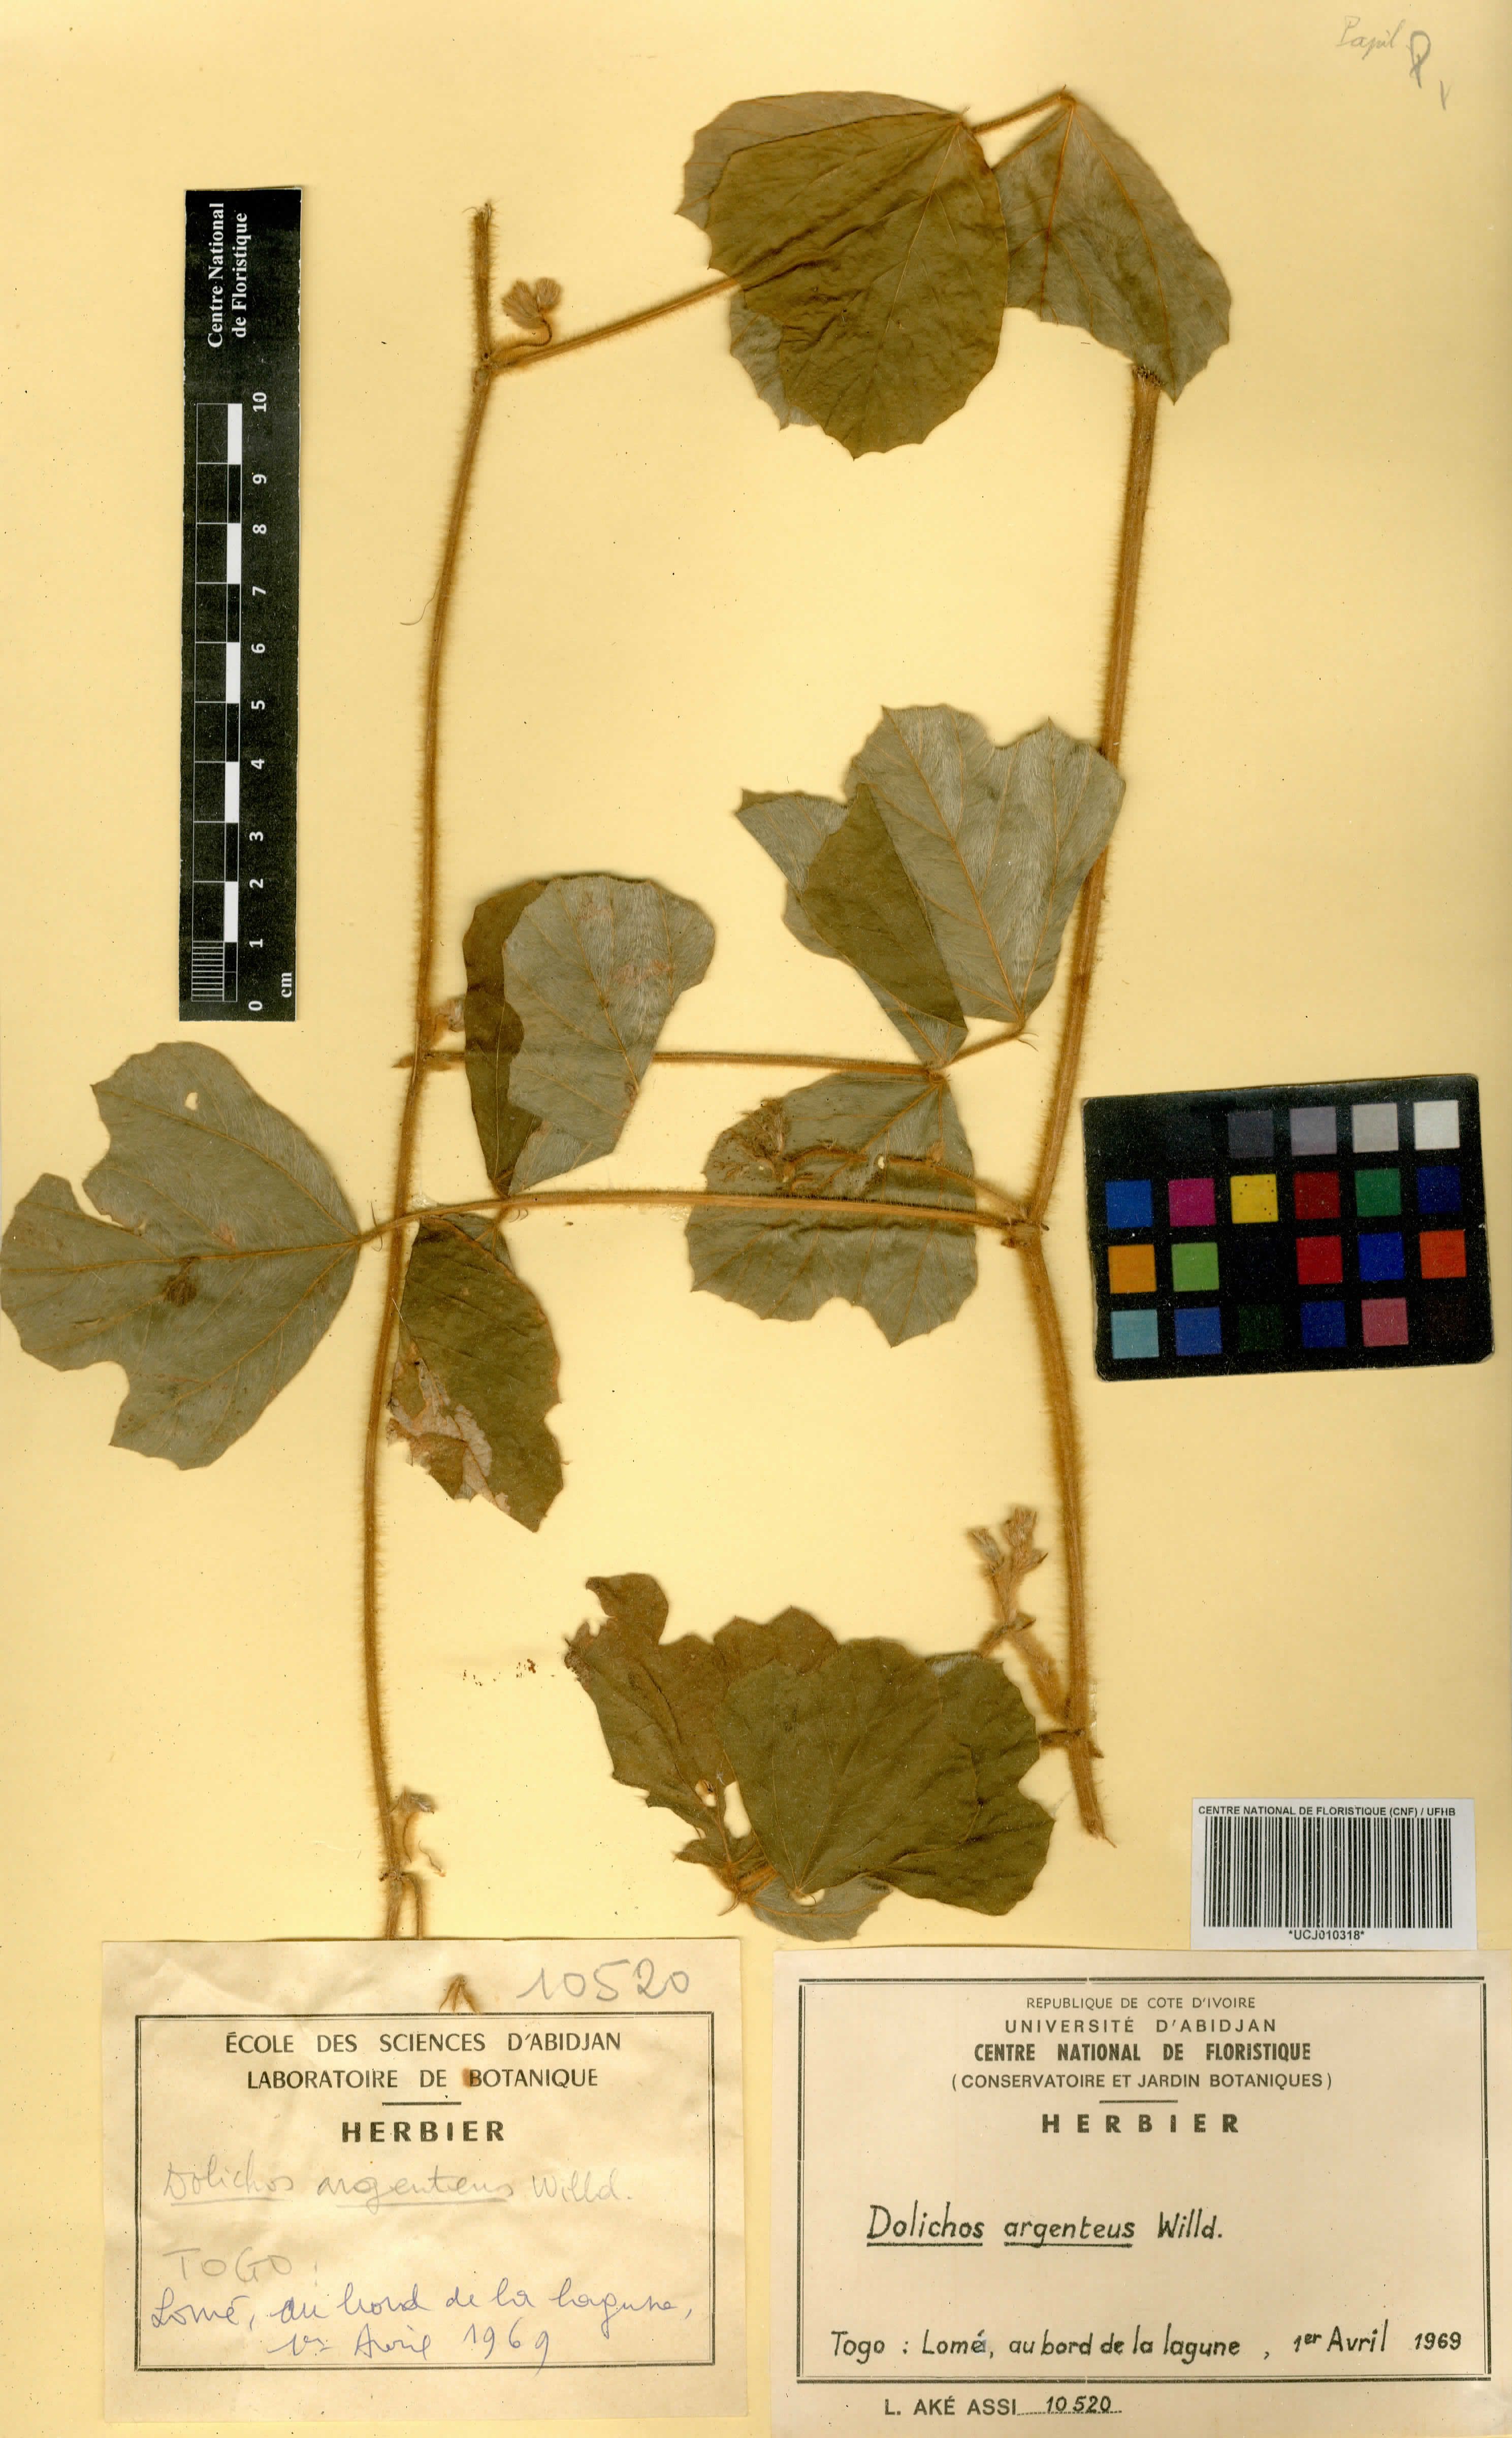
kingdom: Plantae
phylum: Tracheophyta
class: Magnoliopsida
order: Fabales
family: Fabaceae
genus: Pseudovigna
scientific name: Pseudovigna argentea
